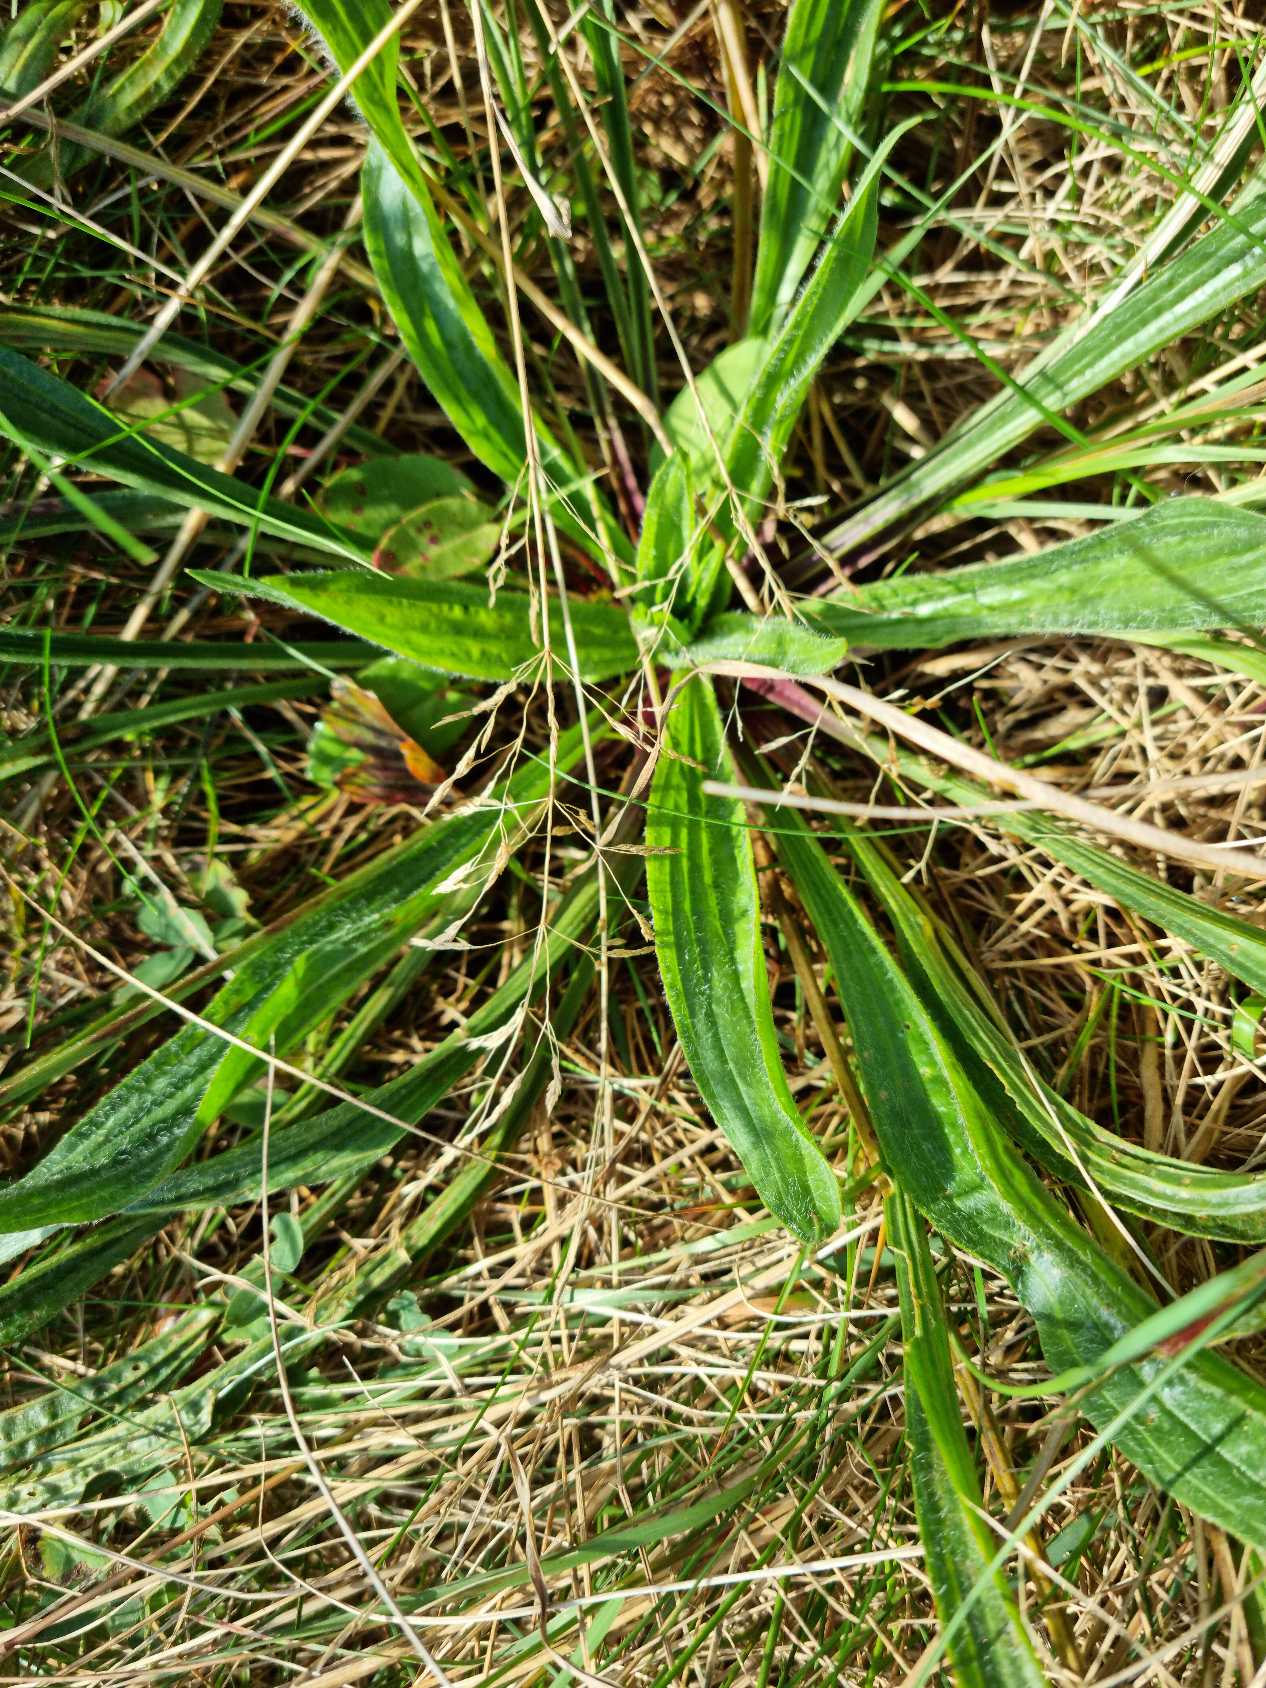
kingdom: Plantae
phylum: Tracheophyta
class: Magnoliopsida
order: Lamiales
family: Plantaginaceae
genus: Plantago
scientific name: Plantago lanceolata
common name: Lancet-vejbred
